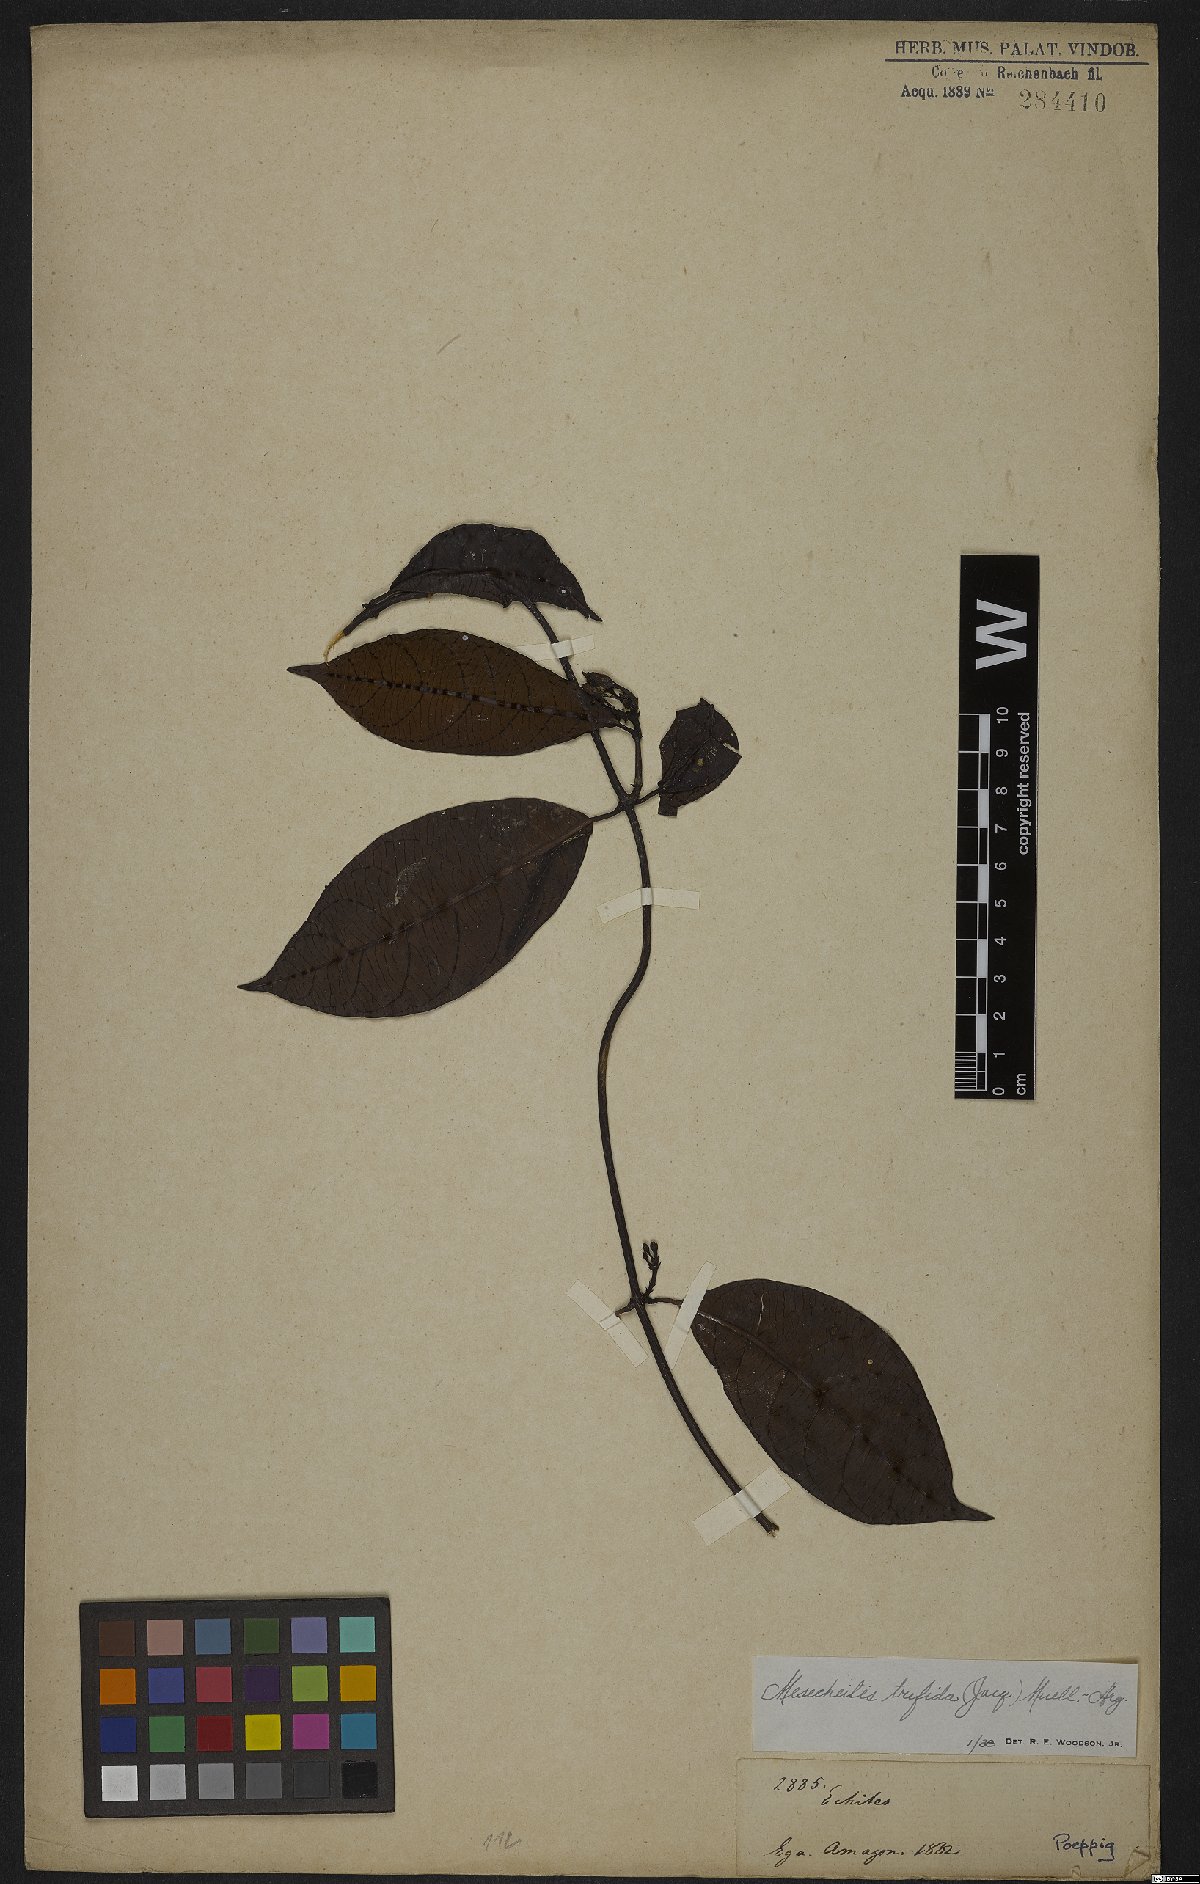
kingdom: Plantae
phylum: Tracheophyta
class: Magnoliopsida
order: Gentianales
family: Apocynaceae
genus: Mesechites
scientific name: Mesechites trifidus
